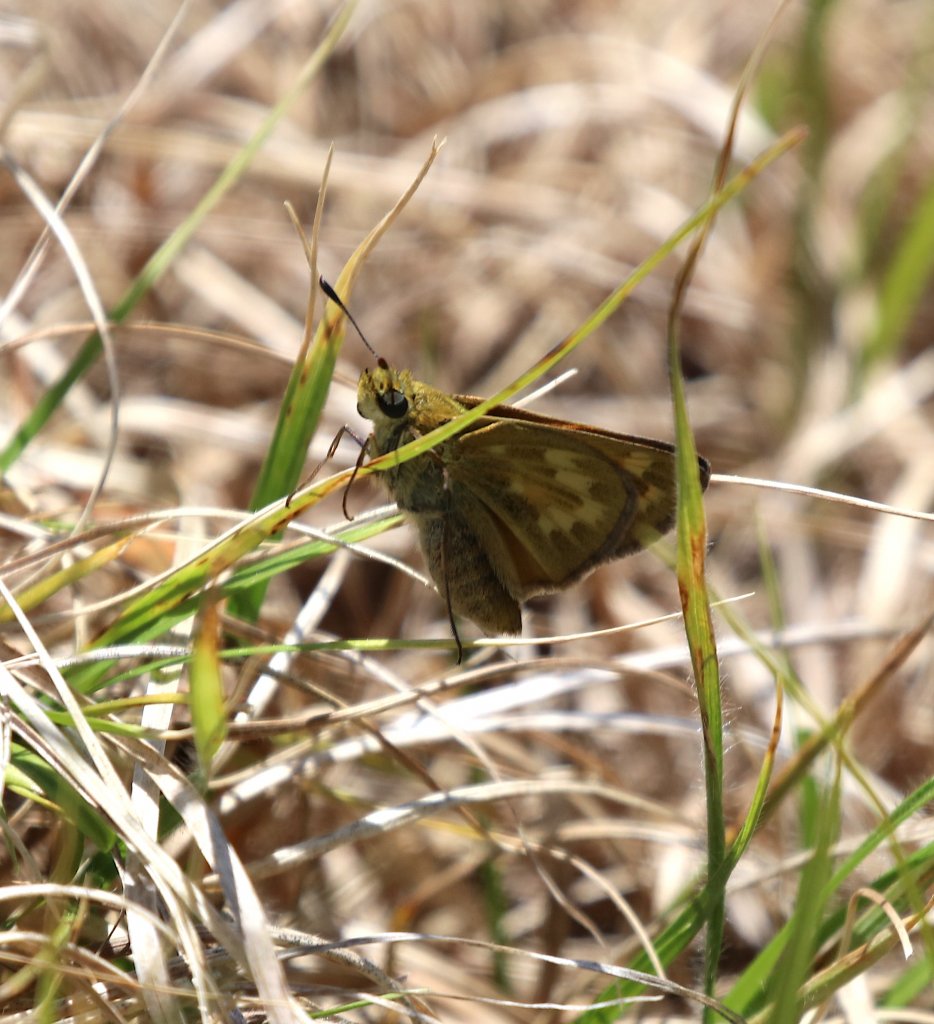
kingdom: Animalia
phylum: Arthropoda
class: Insecta
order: Lepidoptera
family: Hesperiidae
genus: Hesperia
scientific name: Hesperia sassacus
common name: Sassacus Skipper
